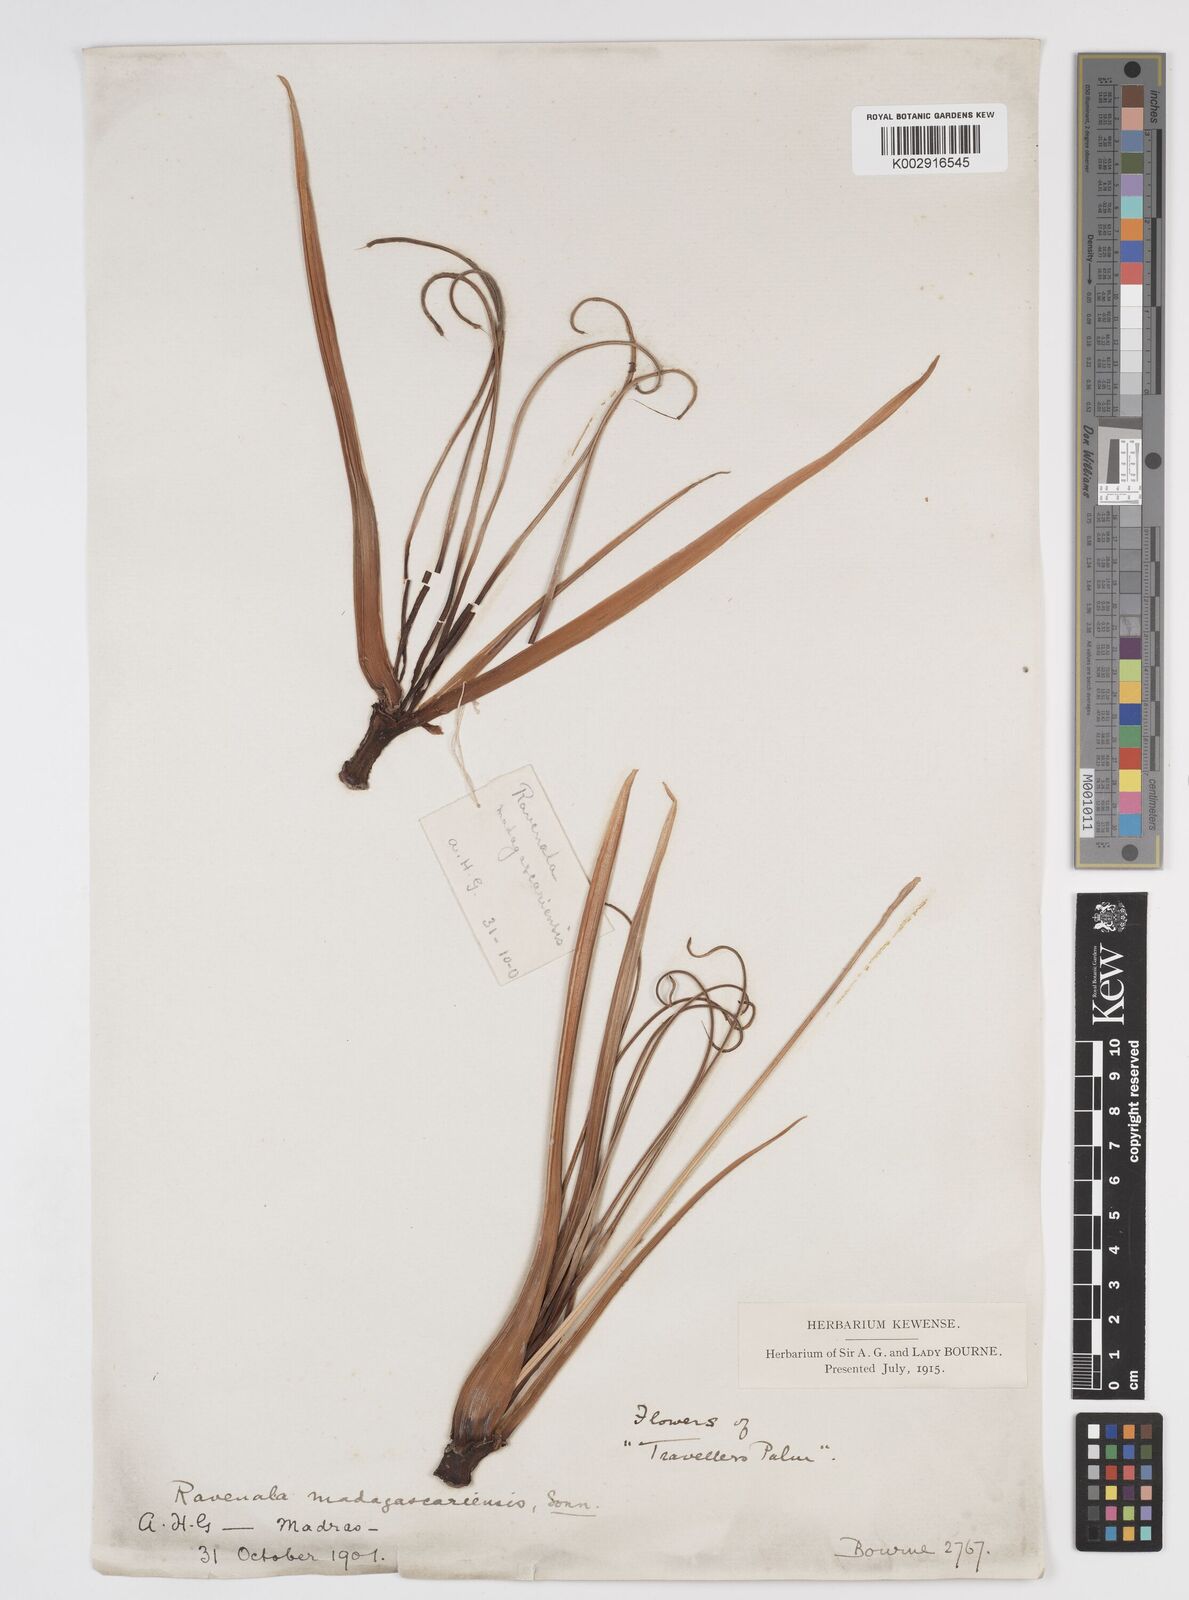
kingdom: Plantae
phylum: Tracheophyta
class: Liliopsida
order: Zingiberales
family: Strelitziaceae
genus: Ravenala
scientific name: Ravenala madagascariensis
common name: Traveler's-palm
